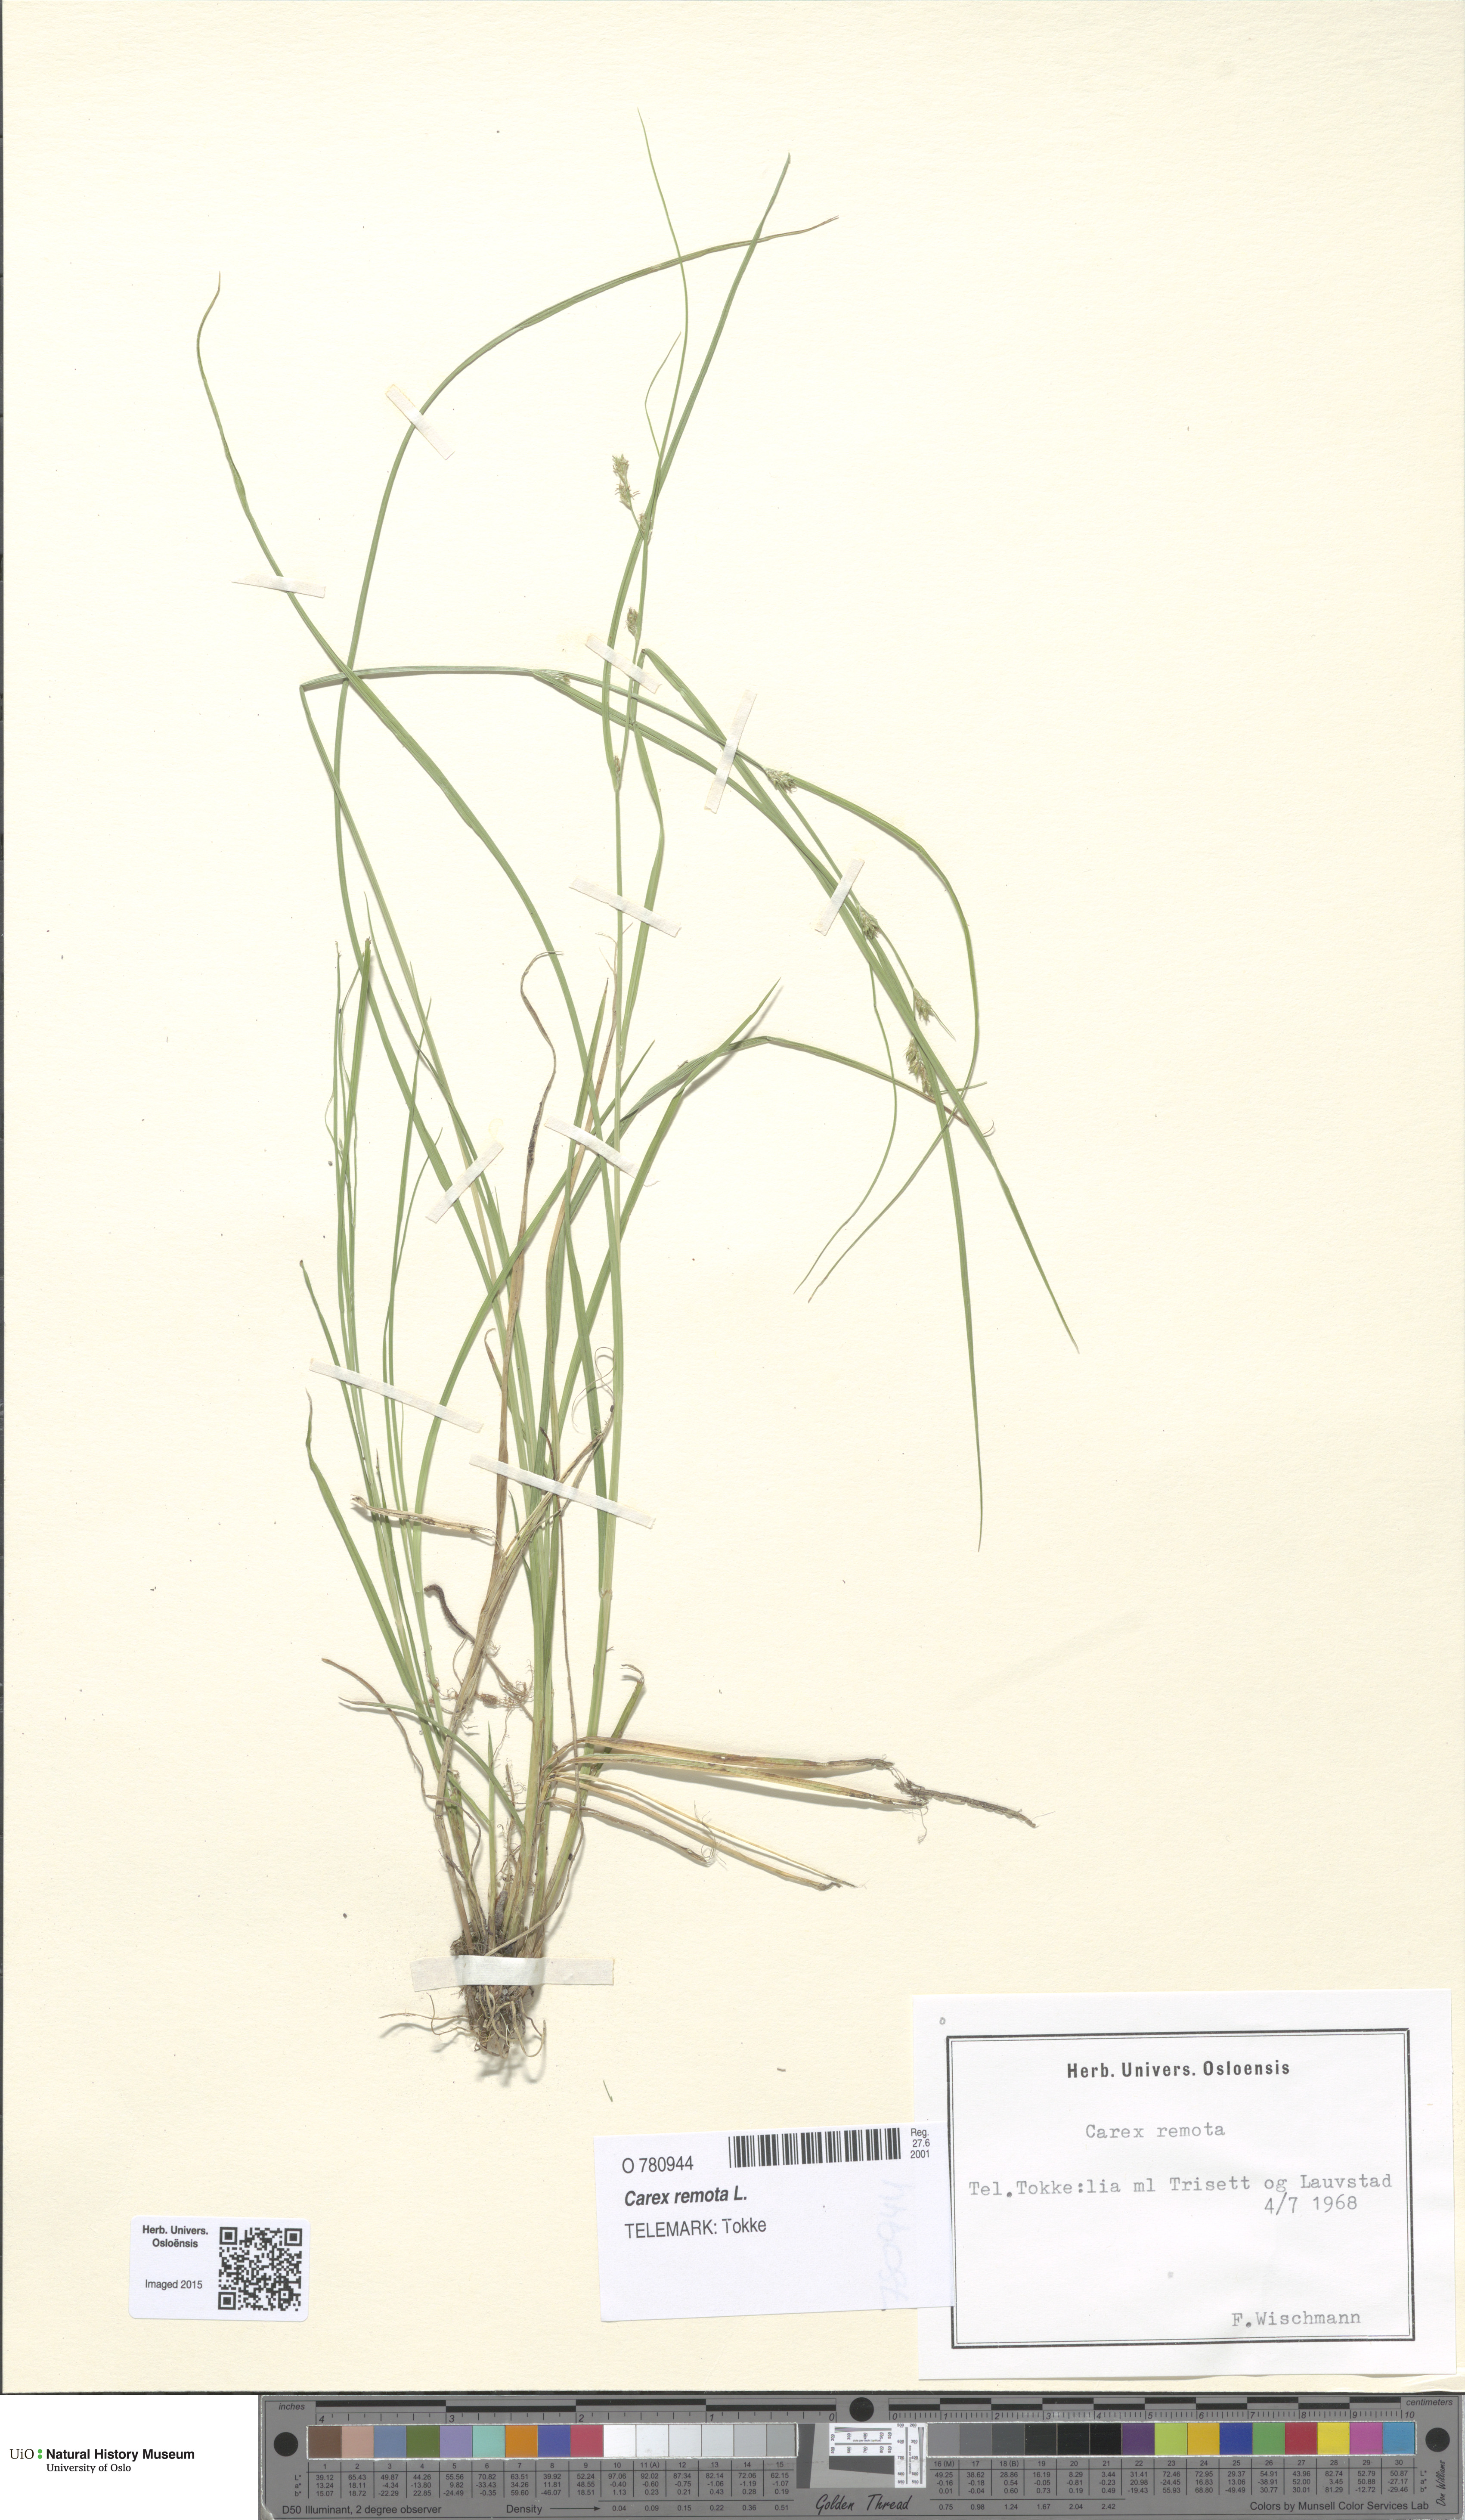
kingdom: Plantae
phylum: Tracheophyta
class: Liliopsida
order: Poales
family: Cyperaceae
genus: Carex
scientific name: Carex remota
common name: Remote sedge
